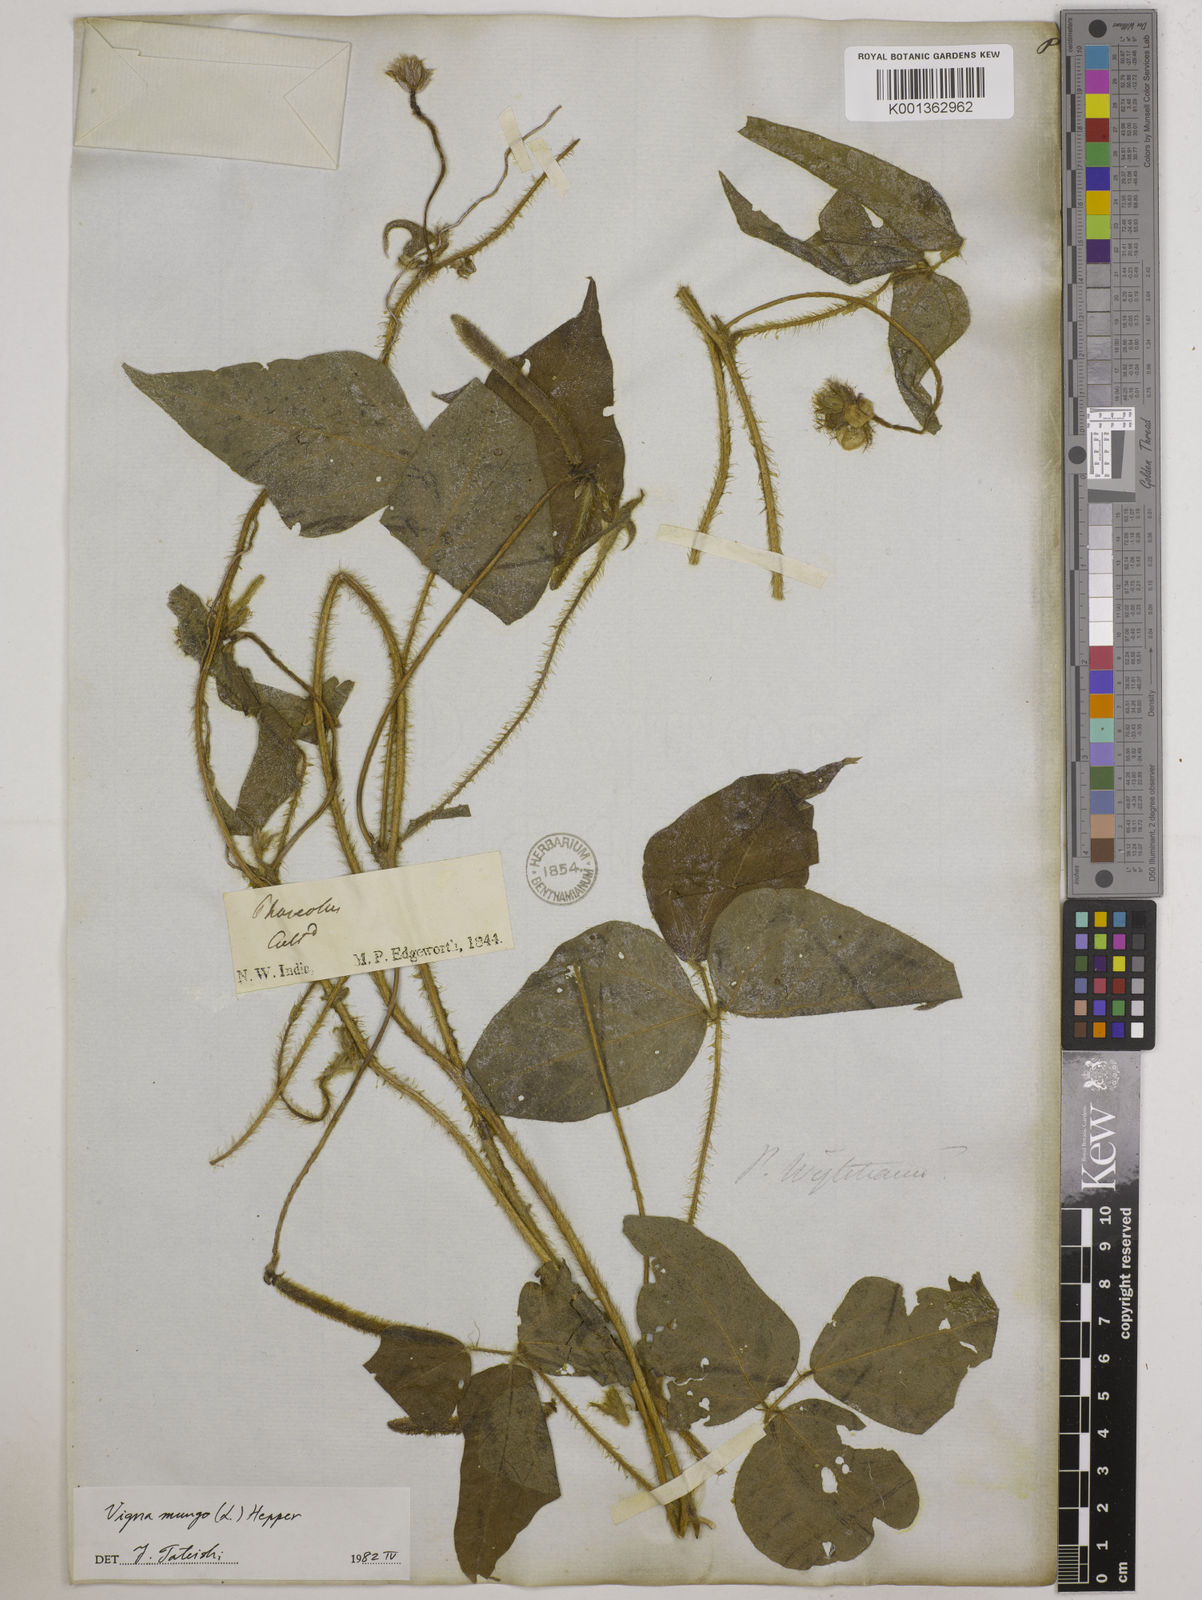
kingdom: Plantae
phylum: Tracheophyta
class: Magnoliopsida
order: Fabales
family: Fabaceae
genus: Vigna
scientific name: Vigna mungo
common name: Black gram
